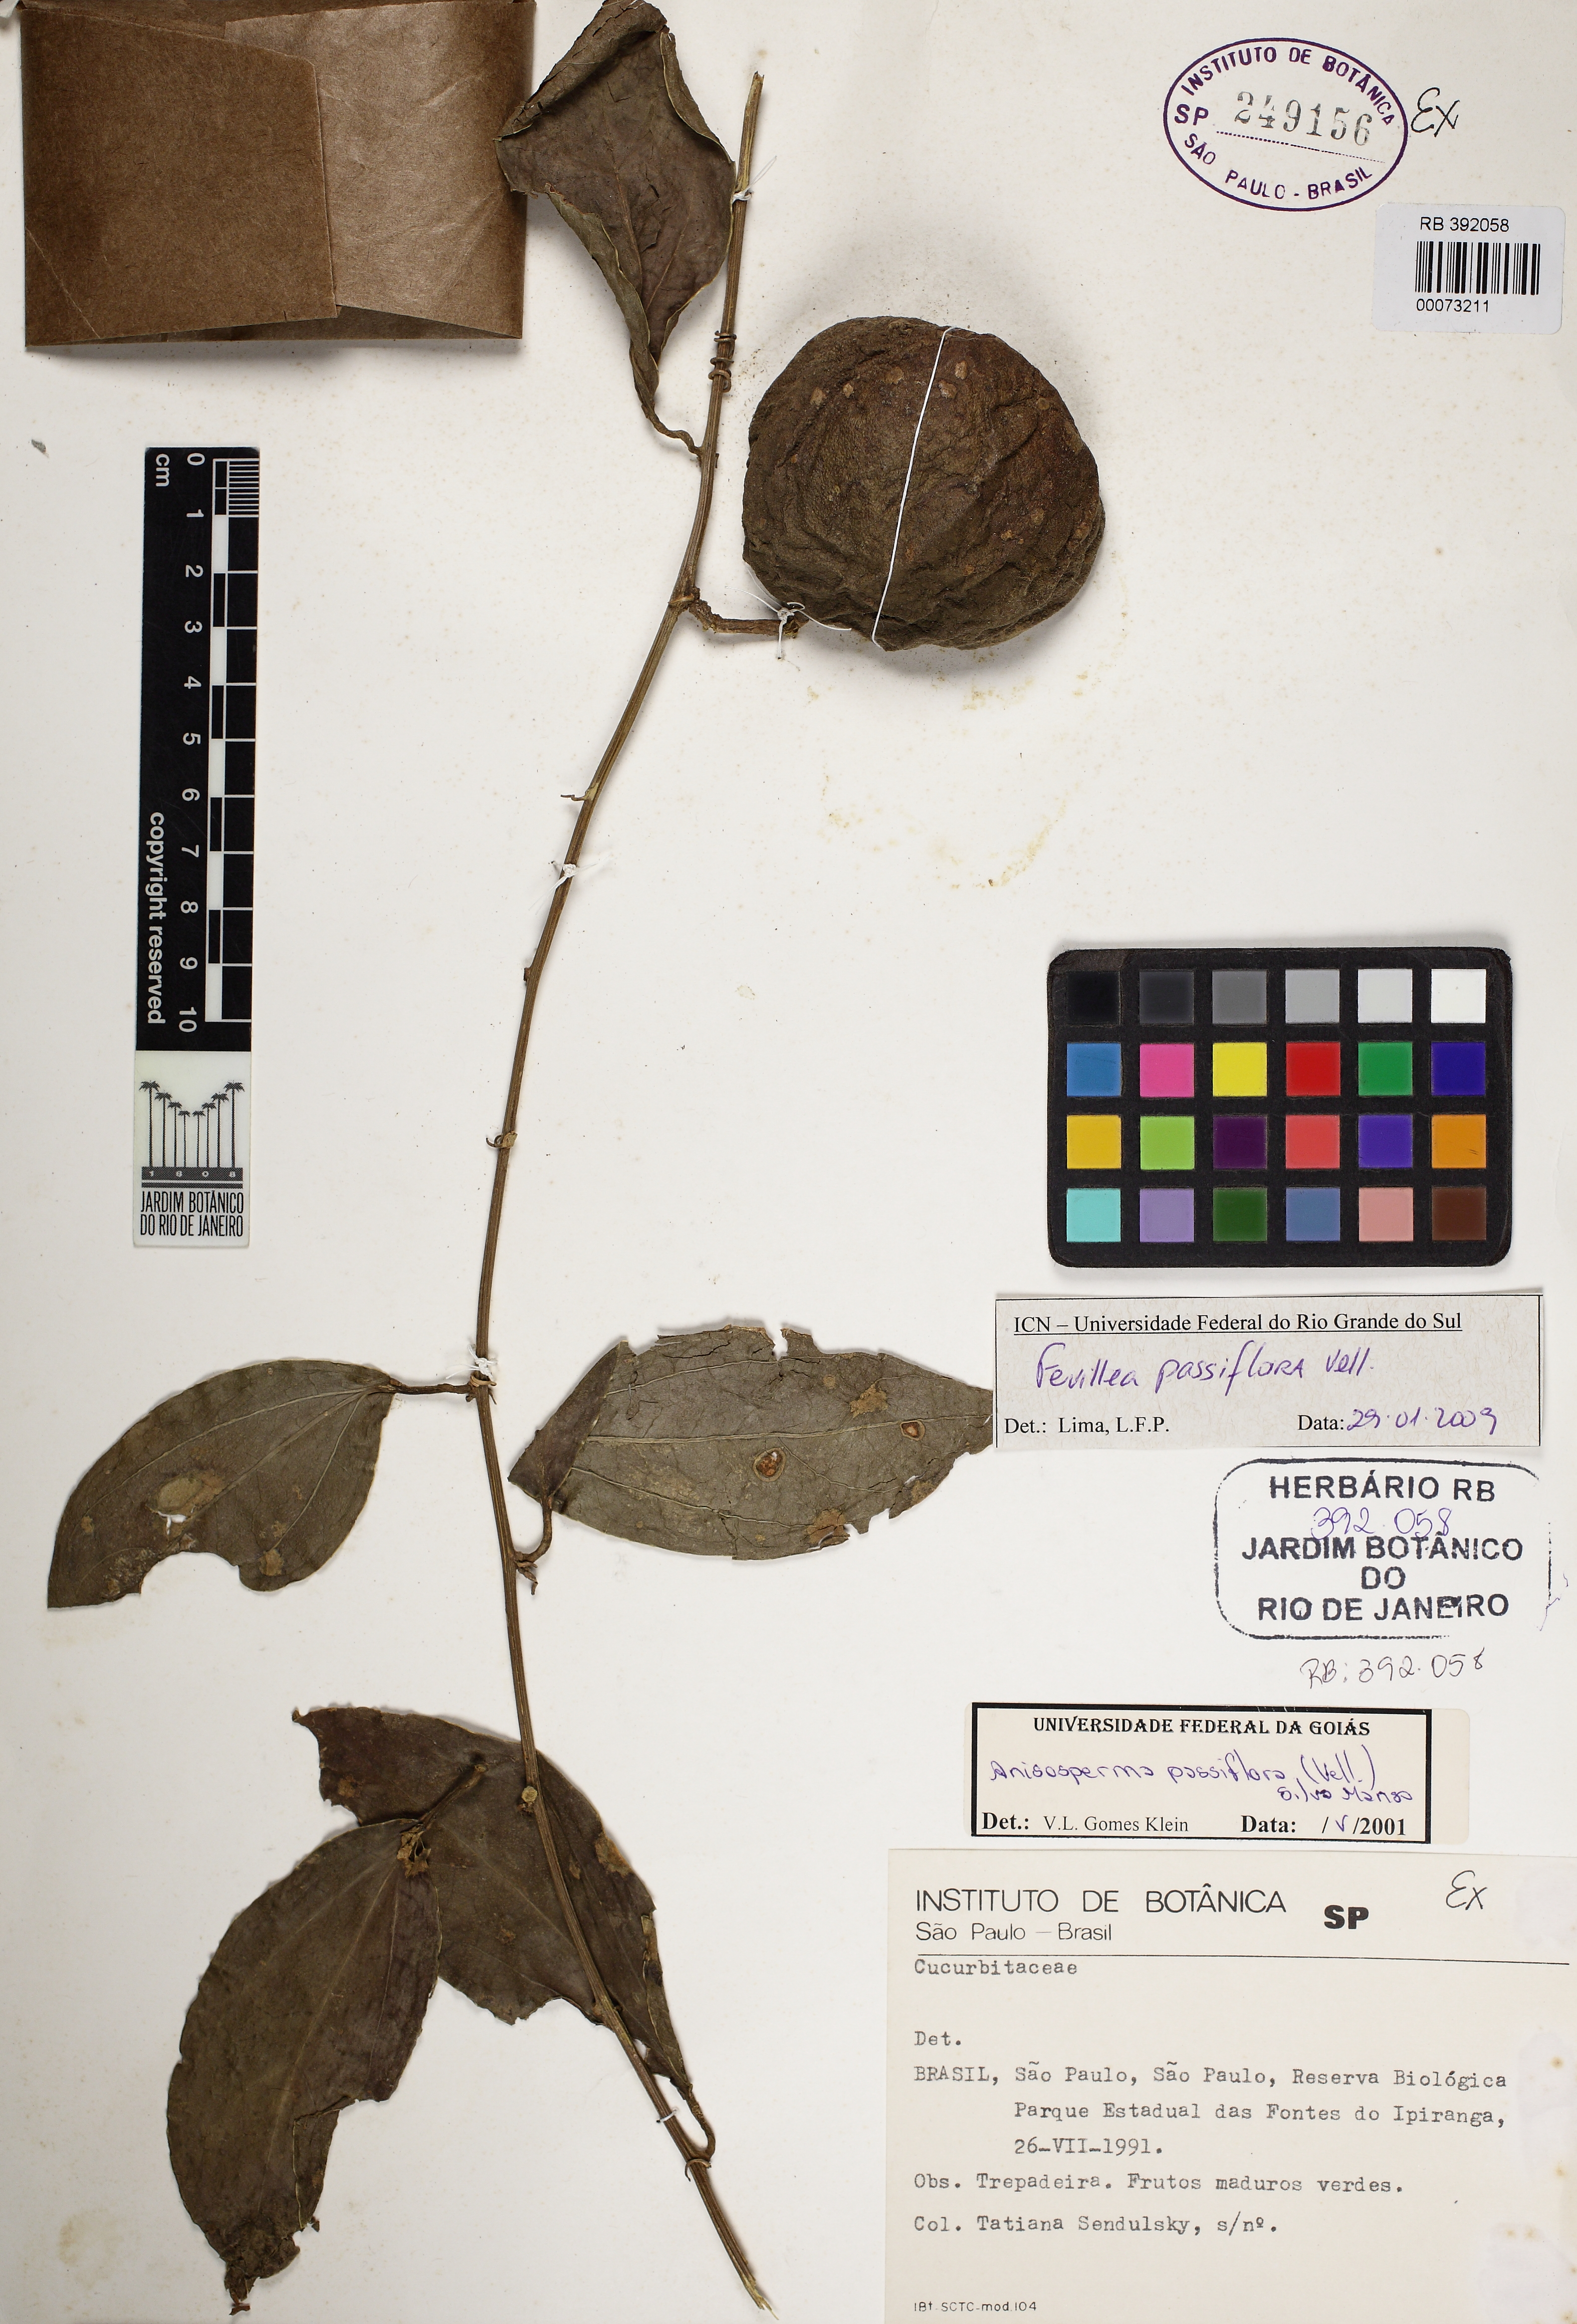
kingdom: Plantae
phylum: Tracheophyta
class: Magnoliopsida
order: Cucurbitales
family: Cucurbitaceae
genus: Anisosperma
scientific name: Anisosperma passiflora
